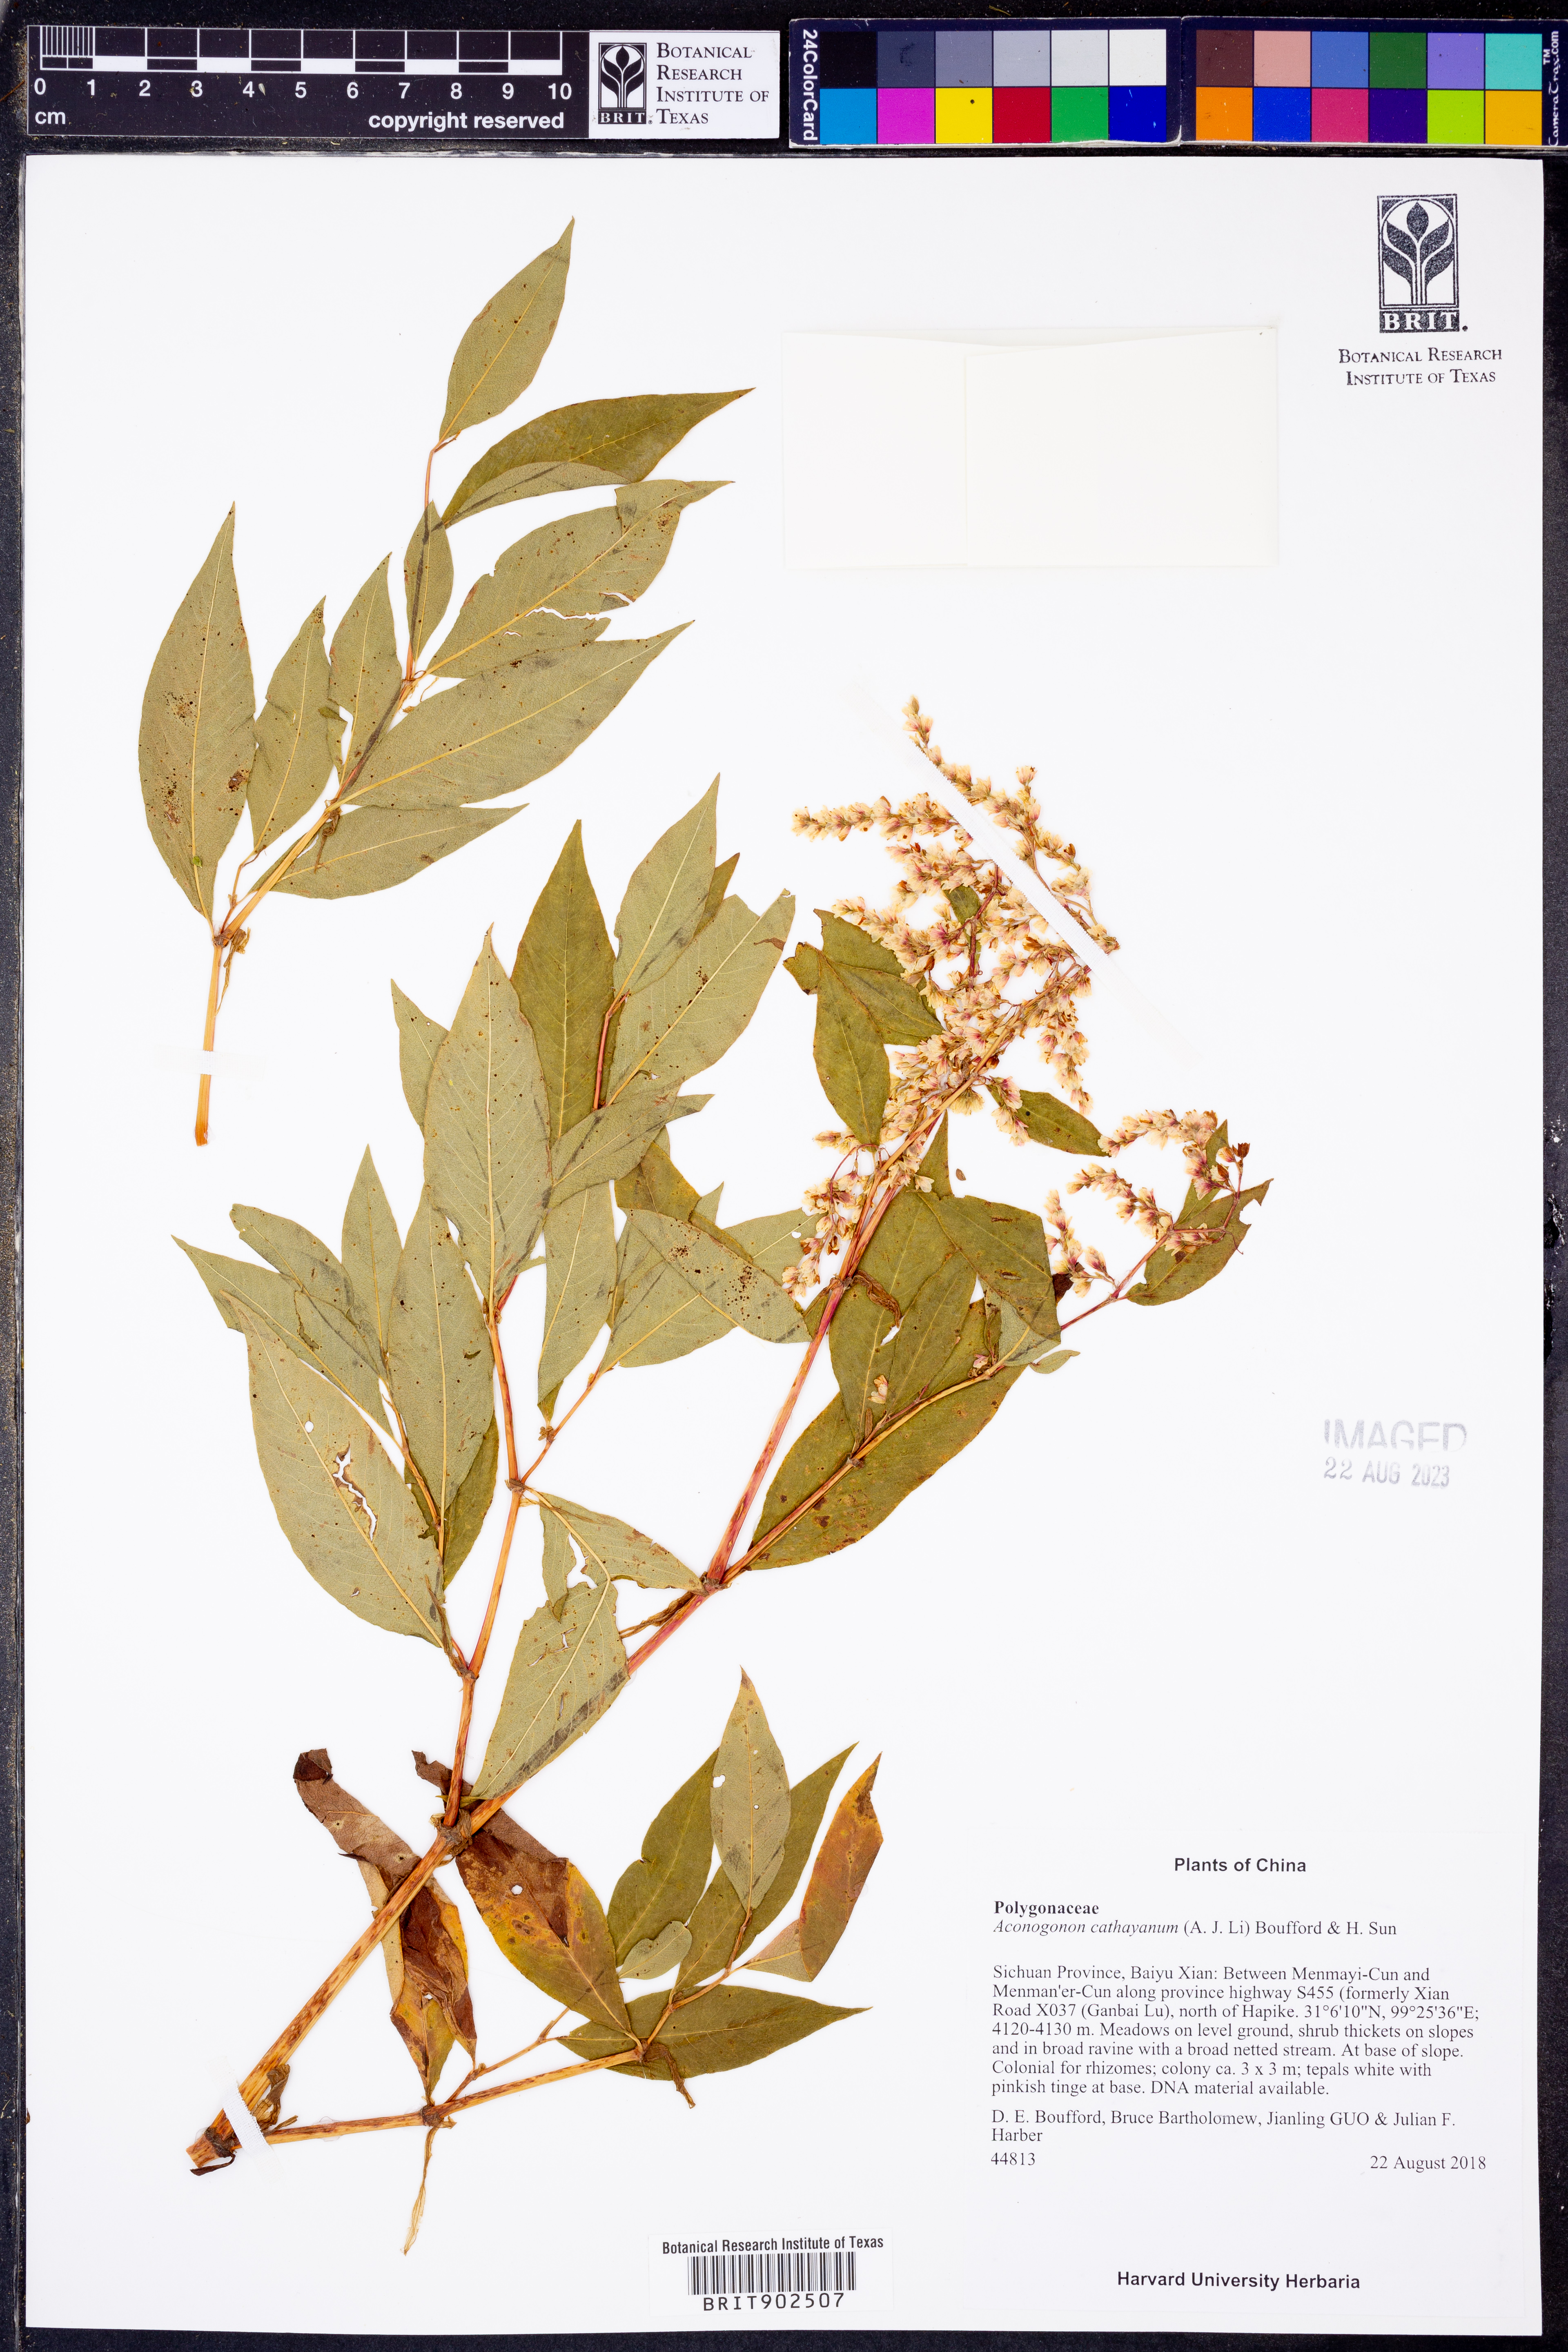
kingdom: Plantae
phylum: Tracheophyta
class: Magnoliopsida
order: Caryophyllales
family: Polygonaceae
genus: Koenigia
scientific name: Koenigia
